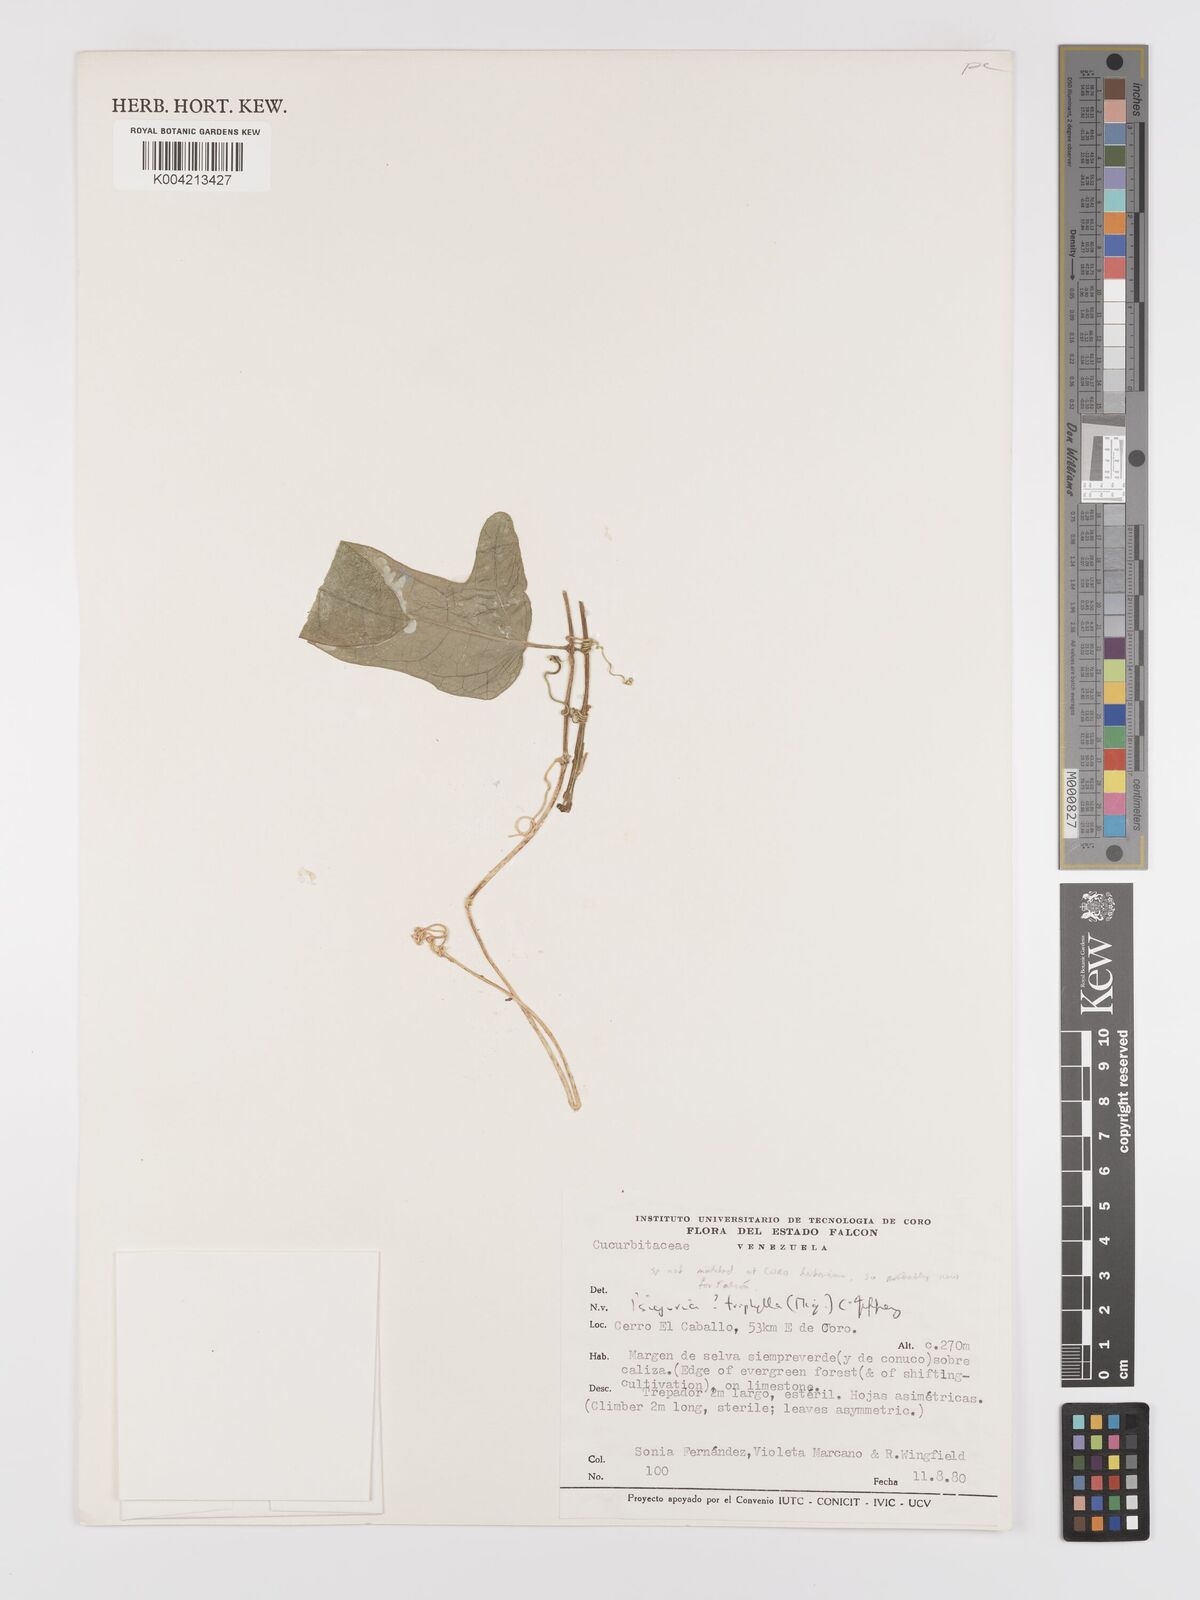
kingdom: Plantae
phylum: Tracheophyta
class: Magnoliopsida
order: Cucurbitales
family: Cucurbitaceae
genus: Psiguria
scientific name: Psiguria triphylla
